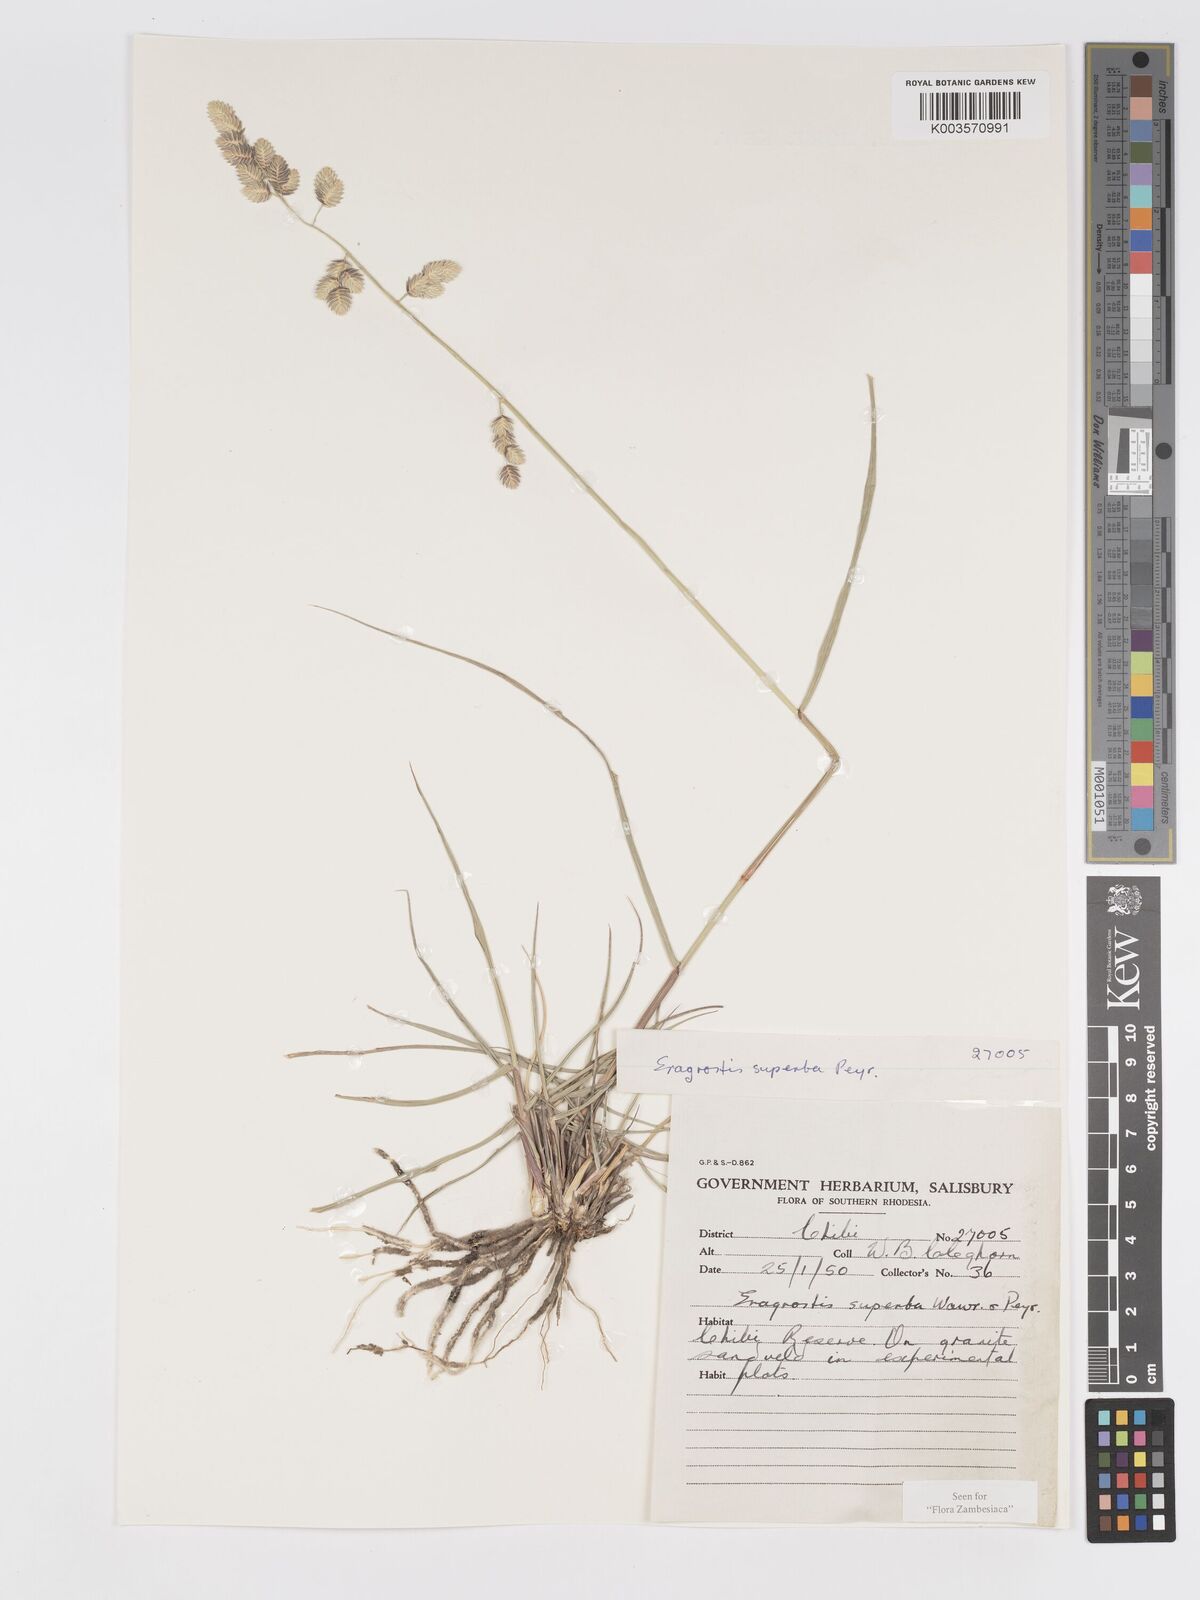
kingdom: Plantae
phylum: Tracheophyta
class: Liliopsida
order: Poales
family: Poaceae
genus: Eragrostis
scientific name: Eragrostis superba
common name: Wilman lovegrass
